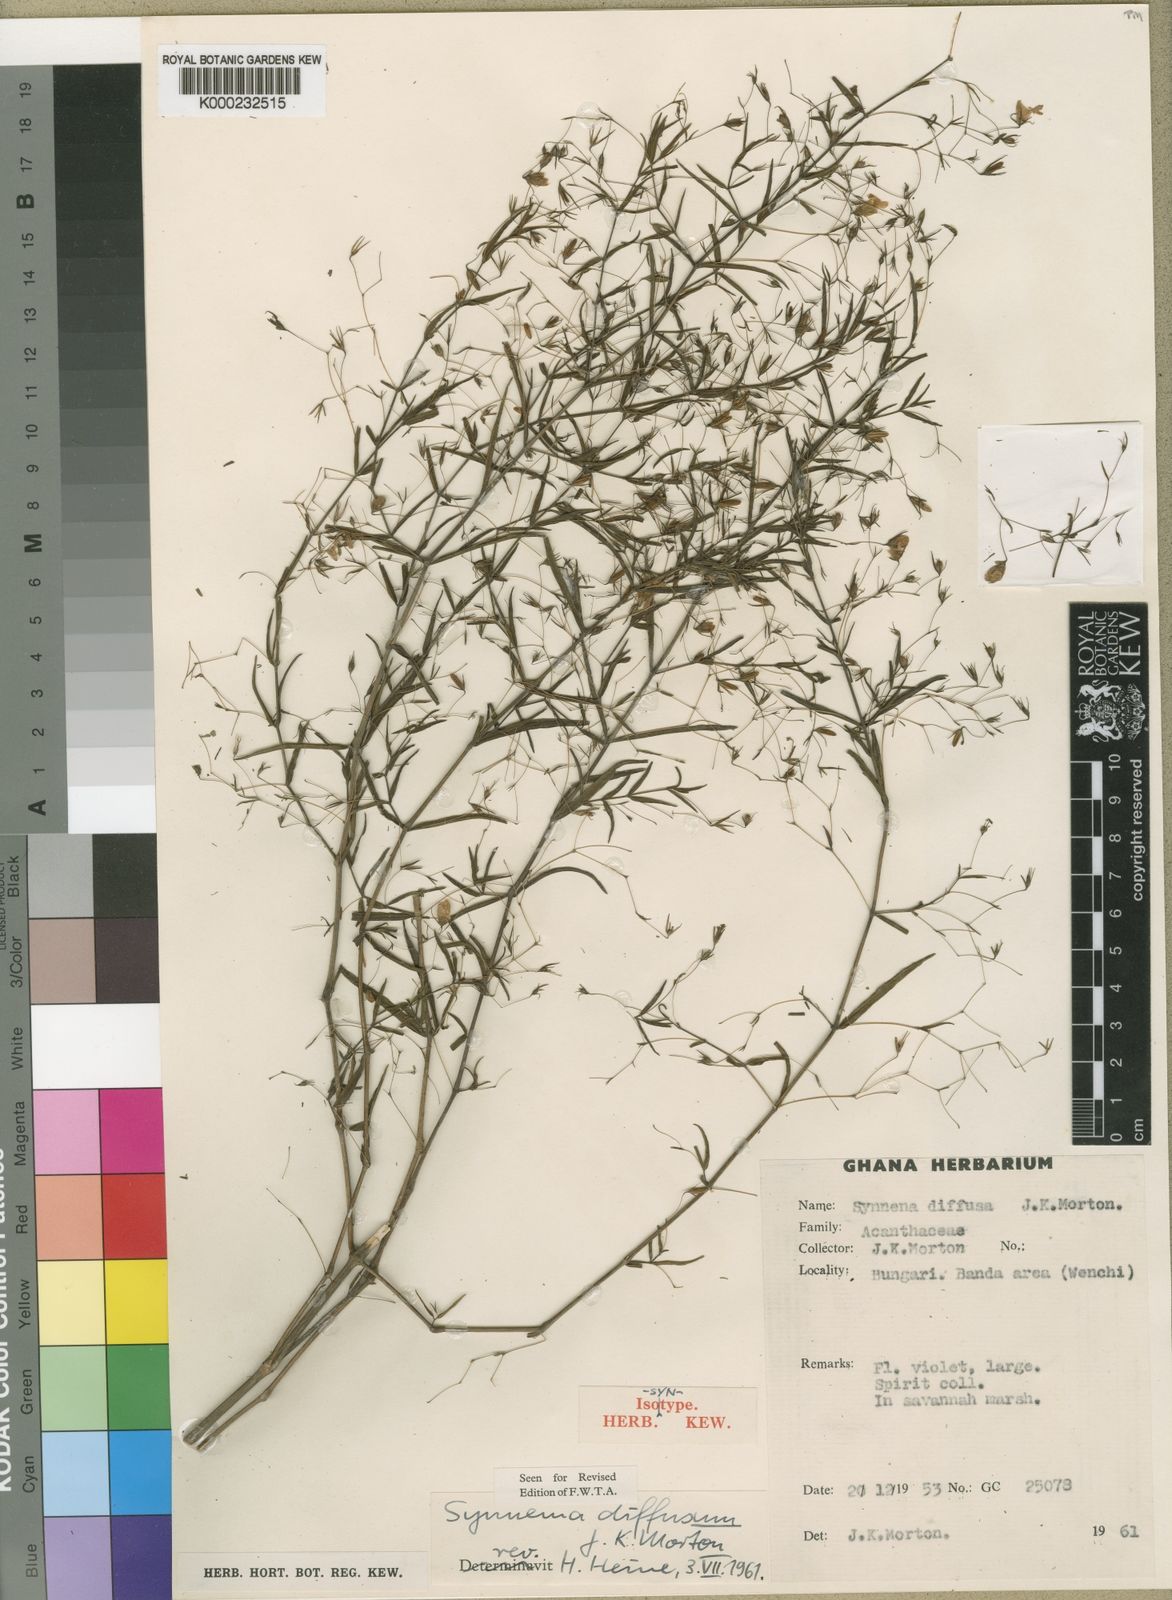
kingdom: Plantae
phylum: Tracheophyta
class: Magnoliopsida
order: Lamiales
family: Acanthaceae
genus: Hygrophila
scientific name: Hygrophila borellii
